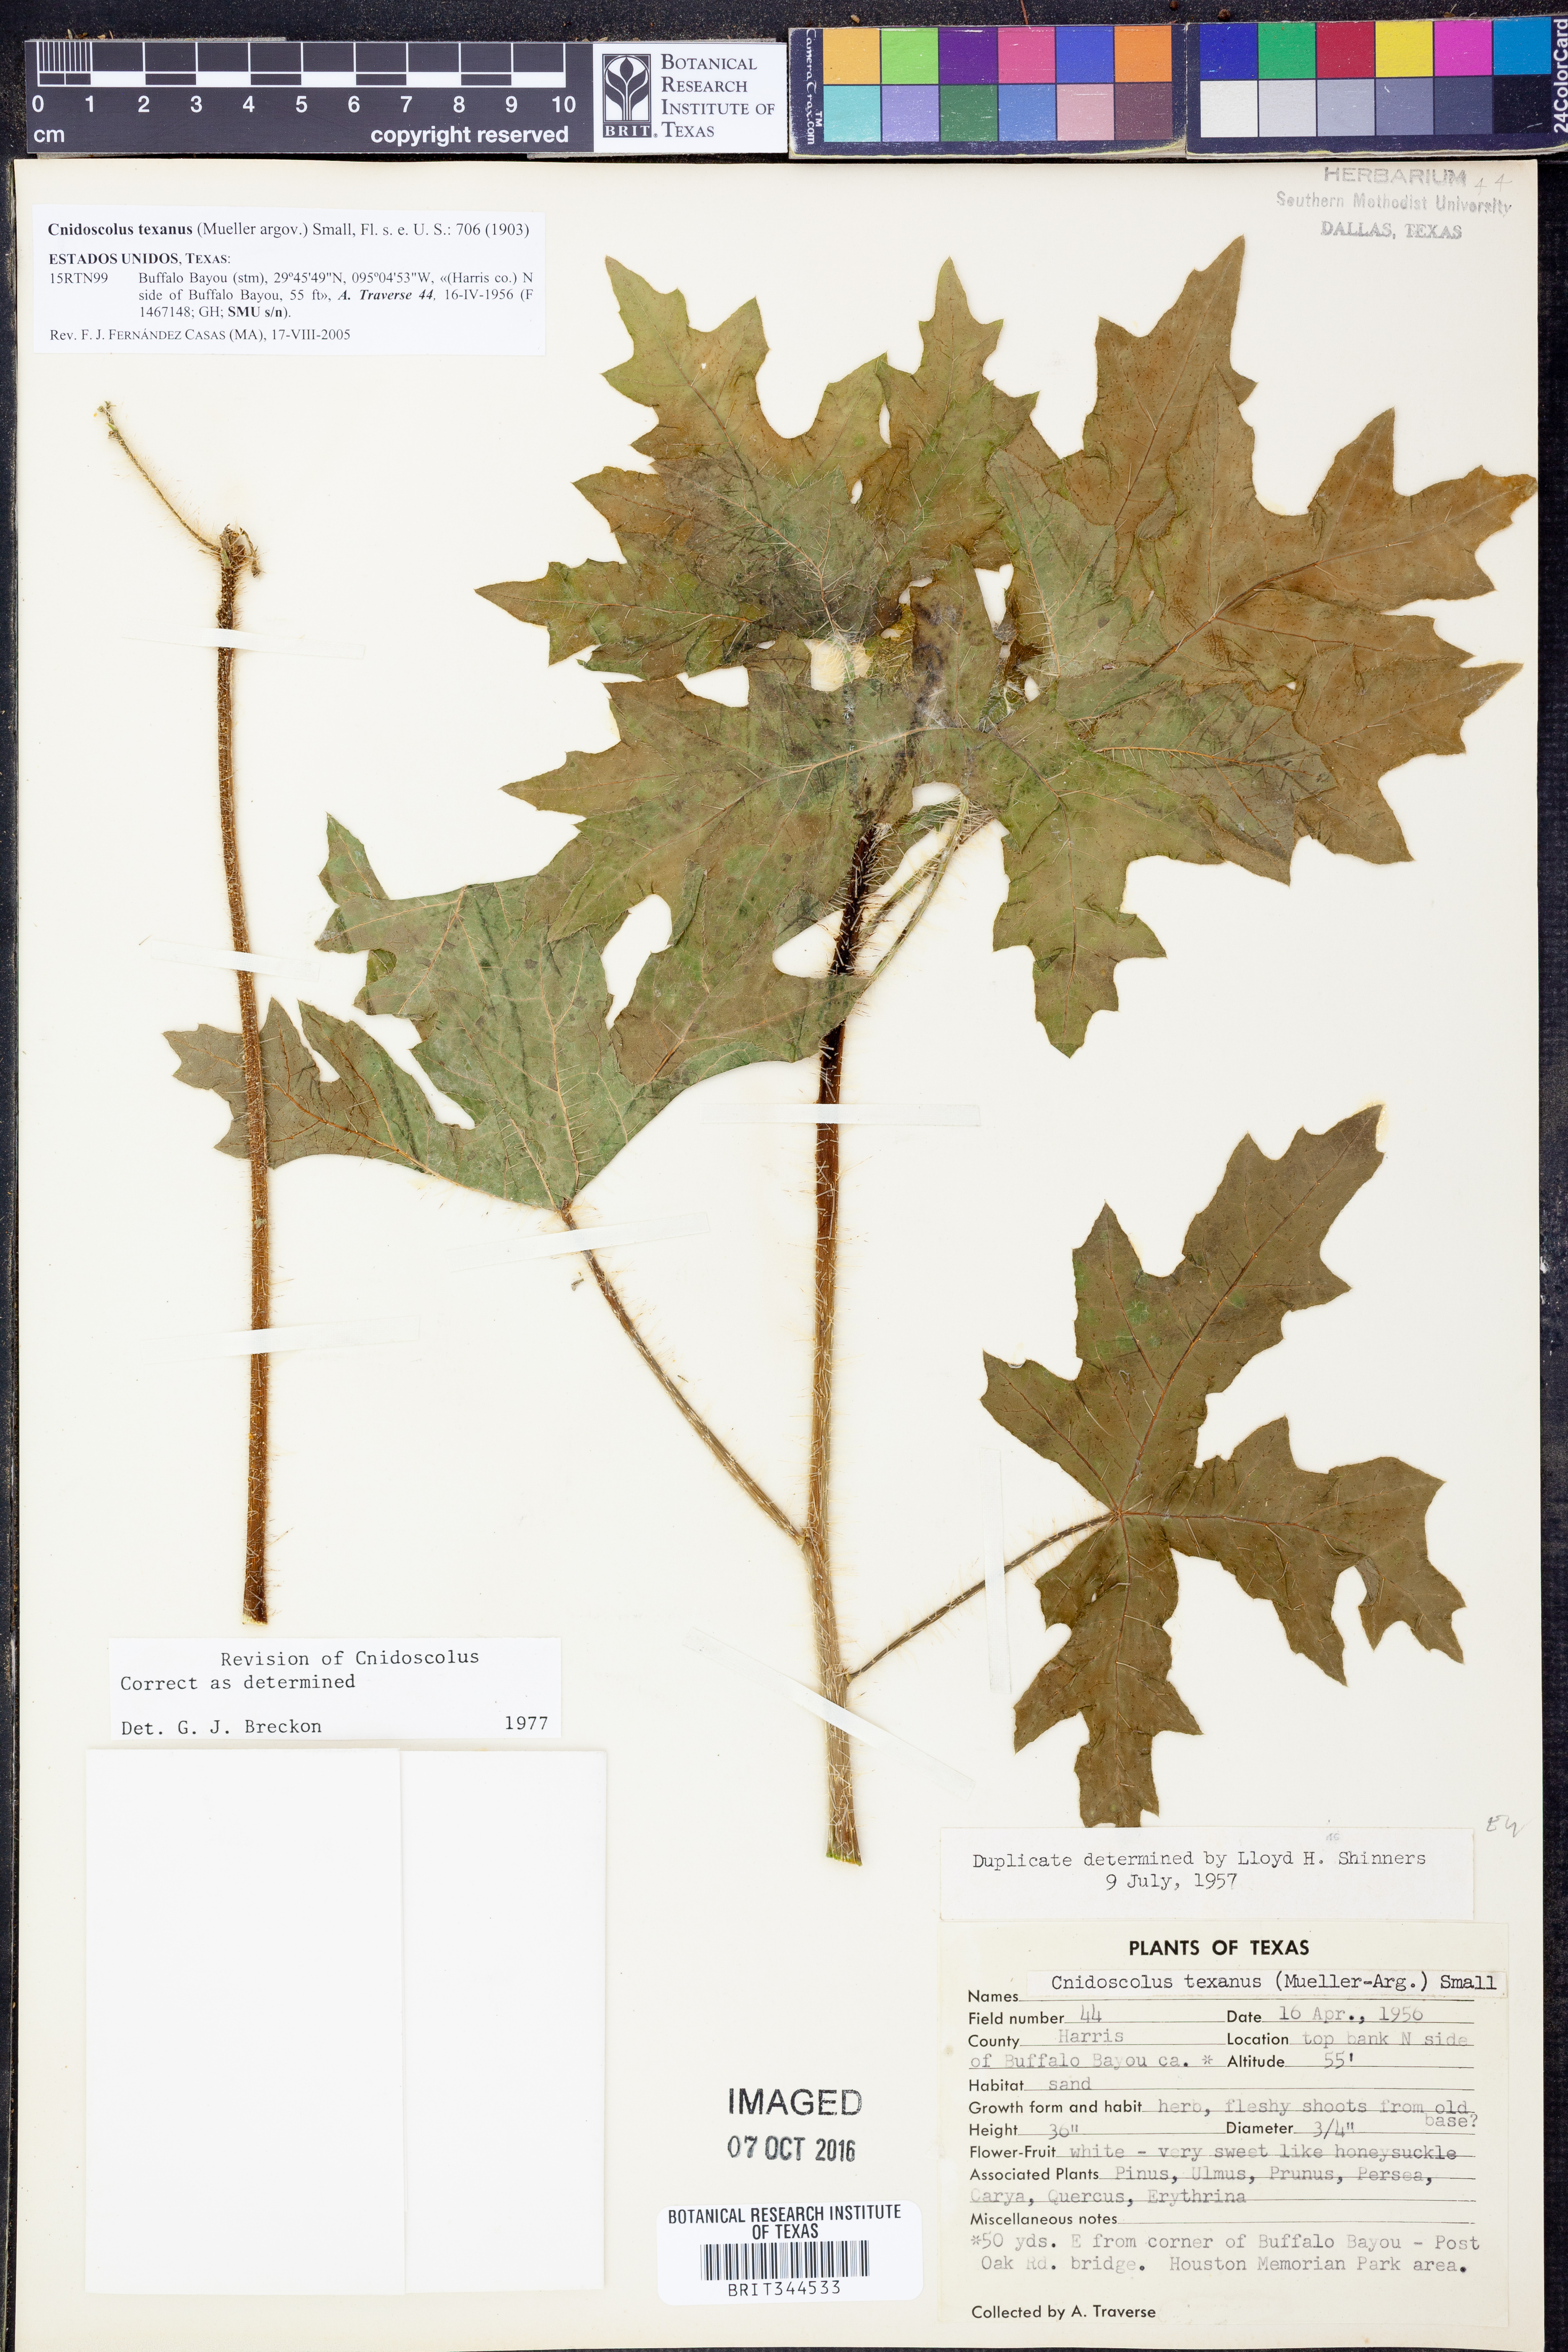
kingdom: Plantae
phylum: Tracheophyta
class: Magnoliopsida
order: Malpighiales
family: Euphorbiaceae
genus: Cnidoscolus
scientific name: Cnidoscolus texanus
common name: Texas bull-nettle
